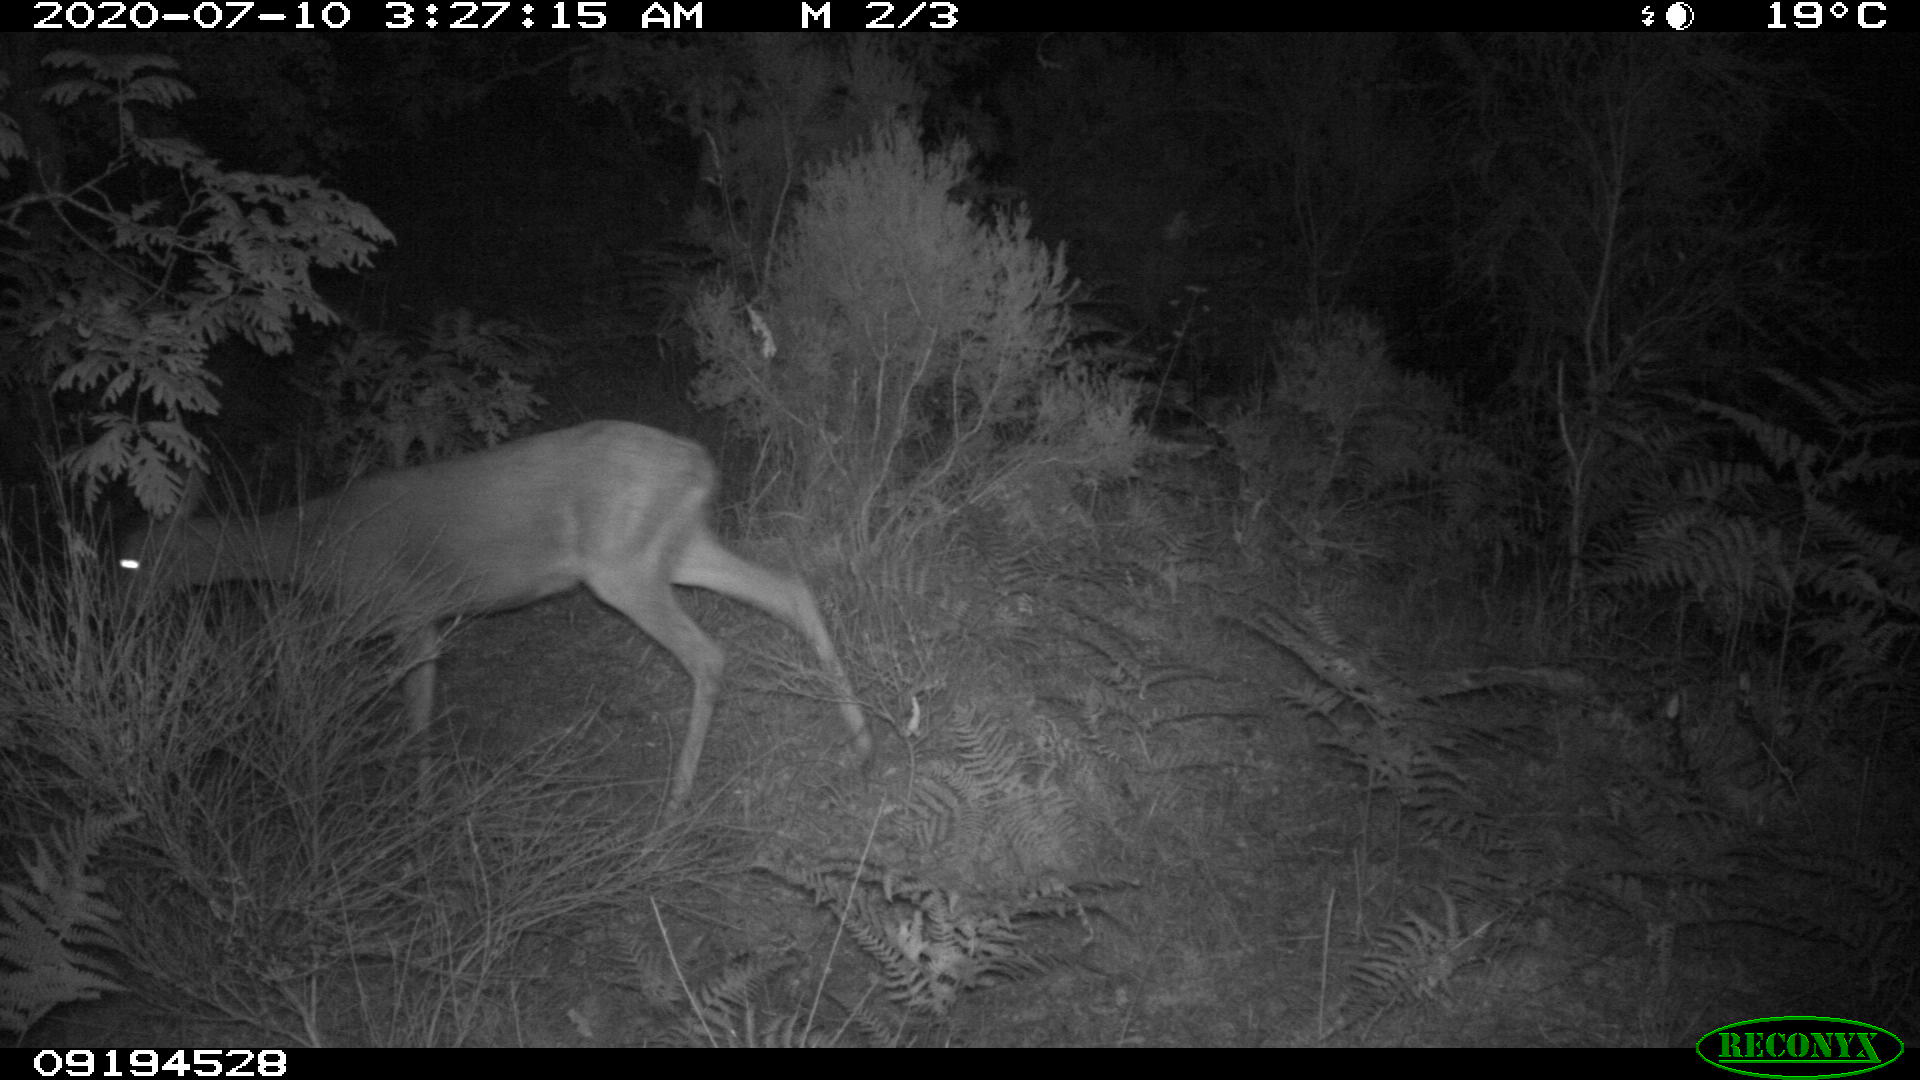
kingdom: Animalia
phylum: Chordata
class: Mammalia
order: Artiodactyla
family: Cervidae
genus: Capreolus
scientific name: Capreolus capreolus
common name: Western roe deer
